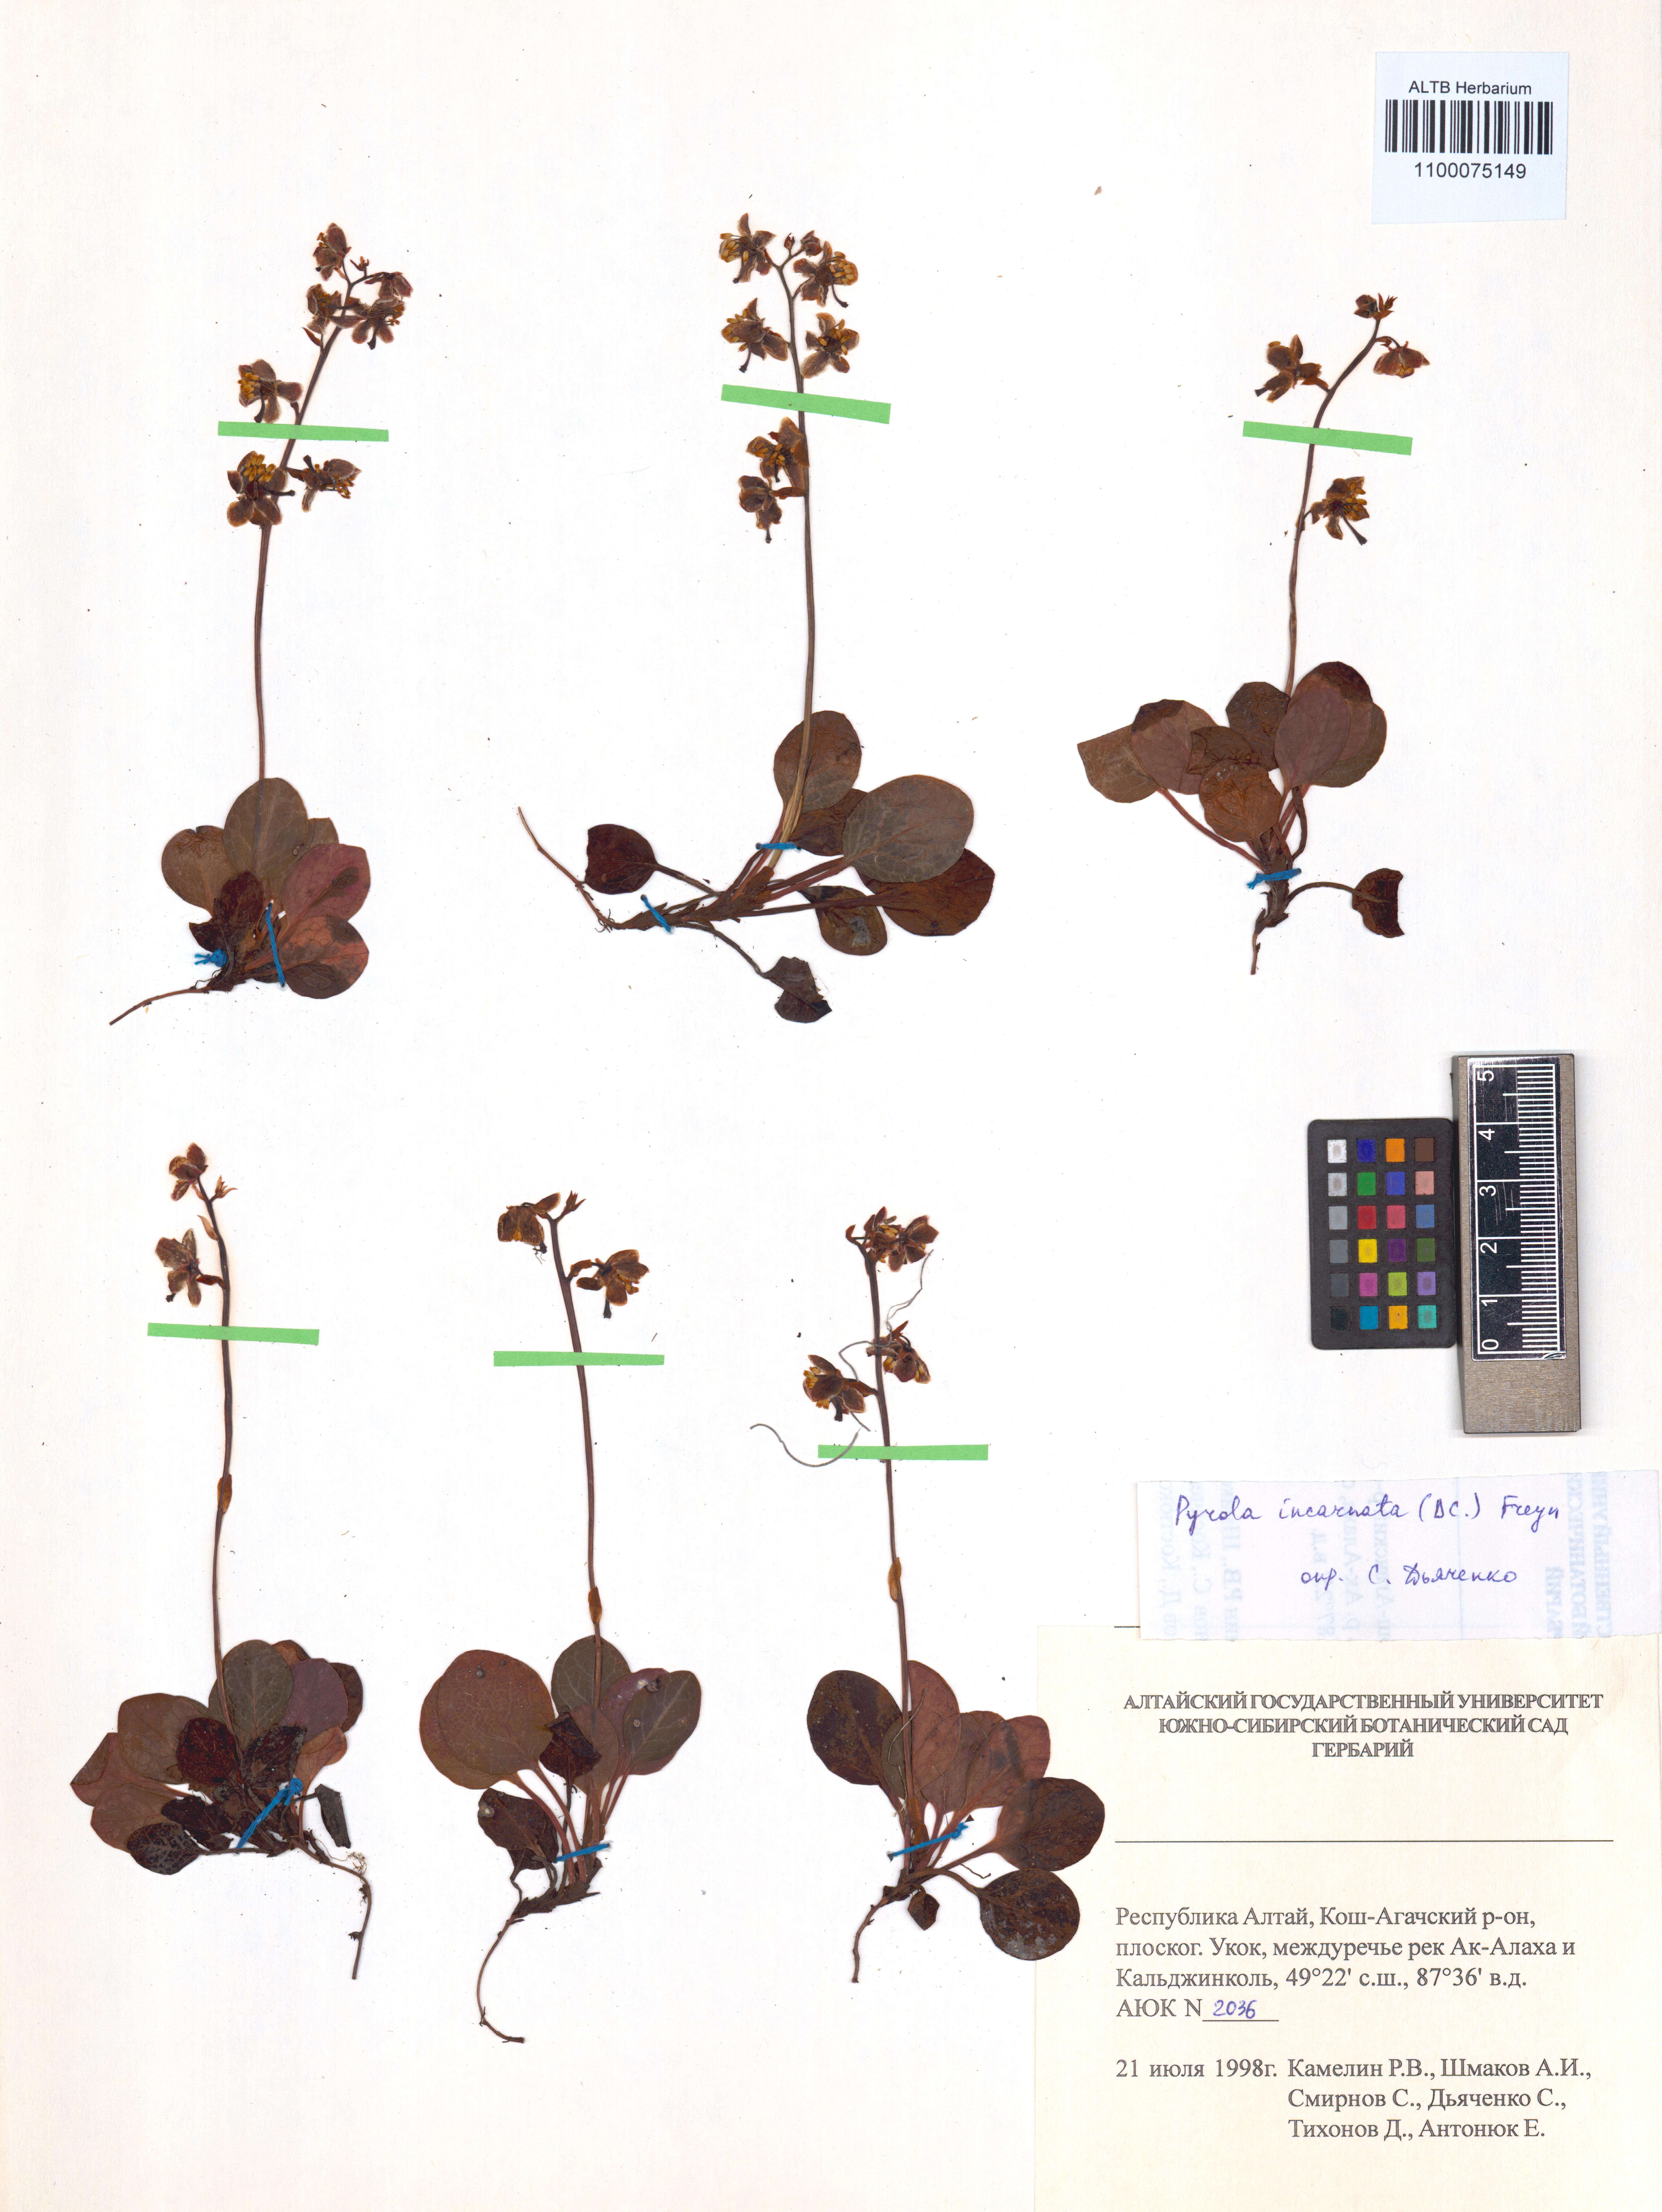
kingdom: Plantae
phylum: Tracheophyta
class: Magnoliopsida
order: Ericales
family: Ericaceae
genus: Pyrola
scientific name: Pyrola asarifolia
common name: Bog wintergreen
